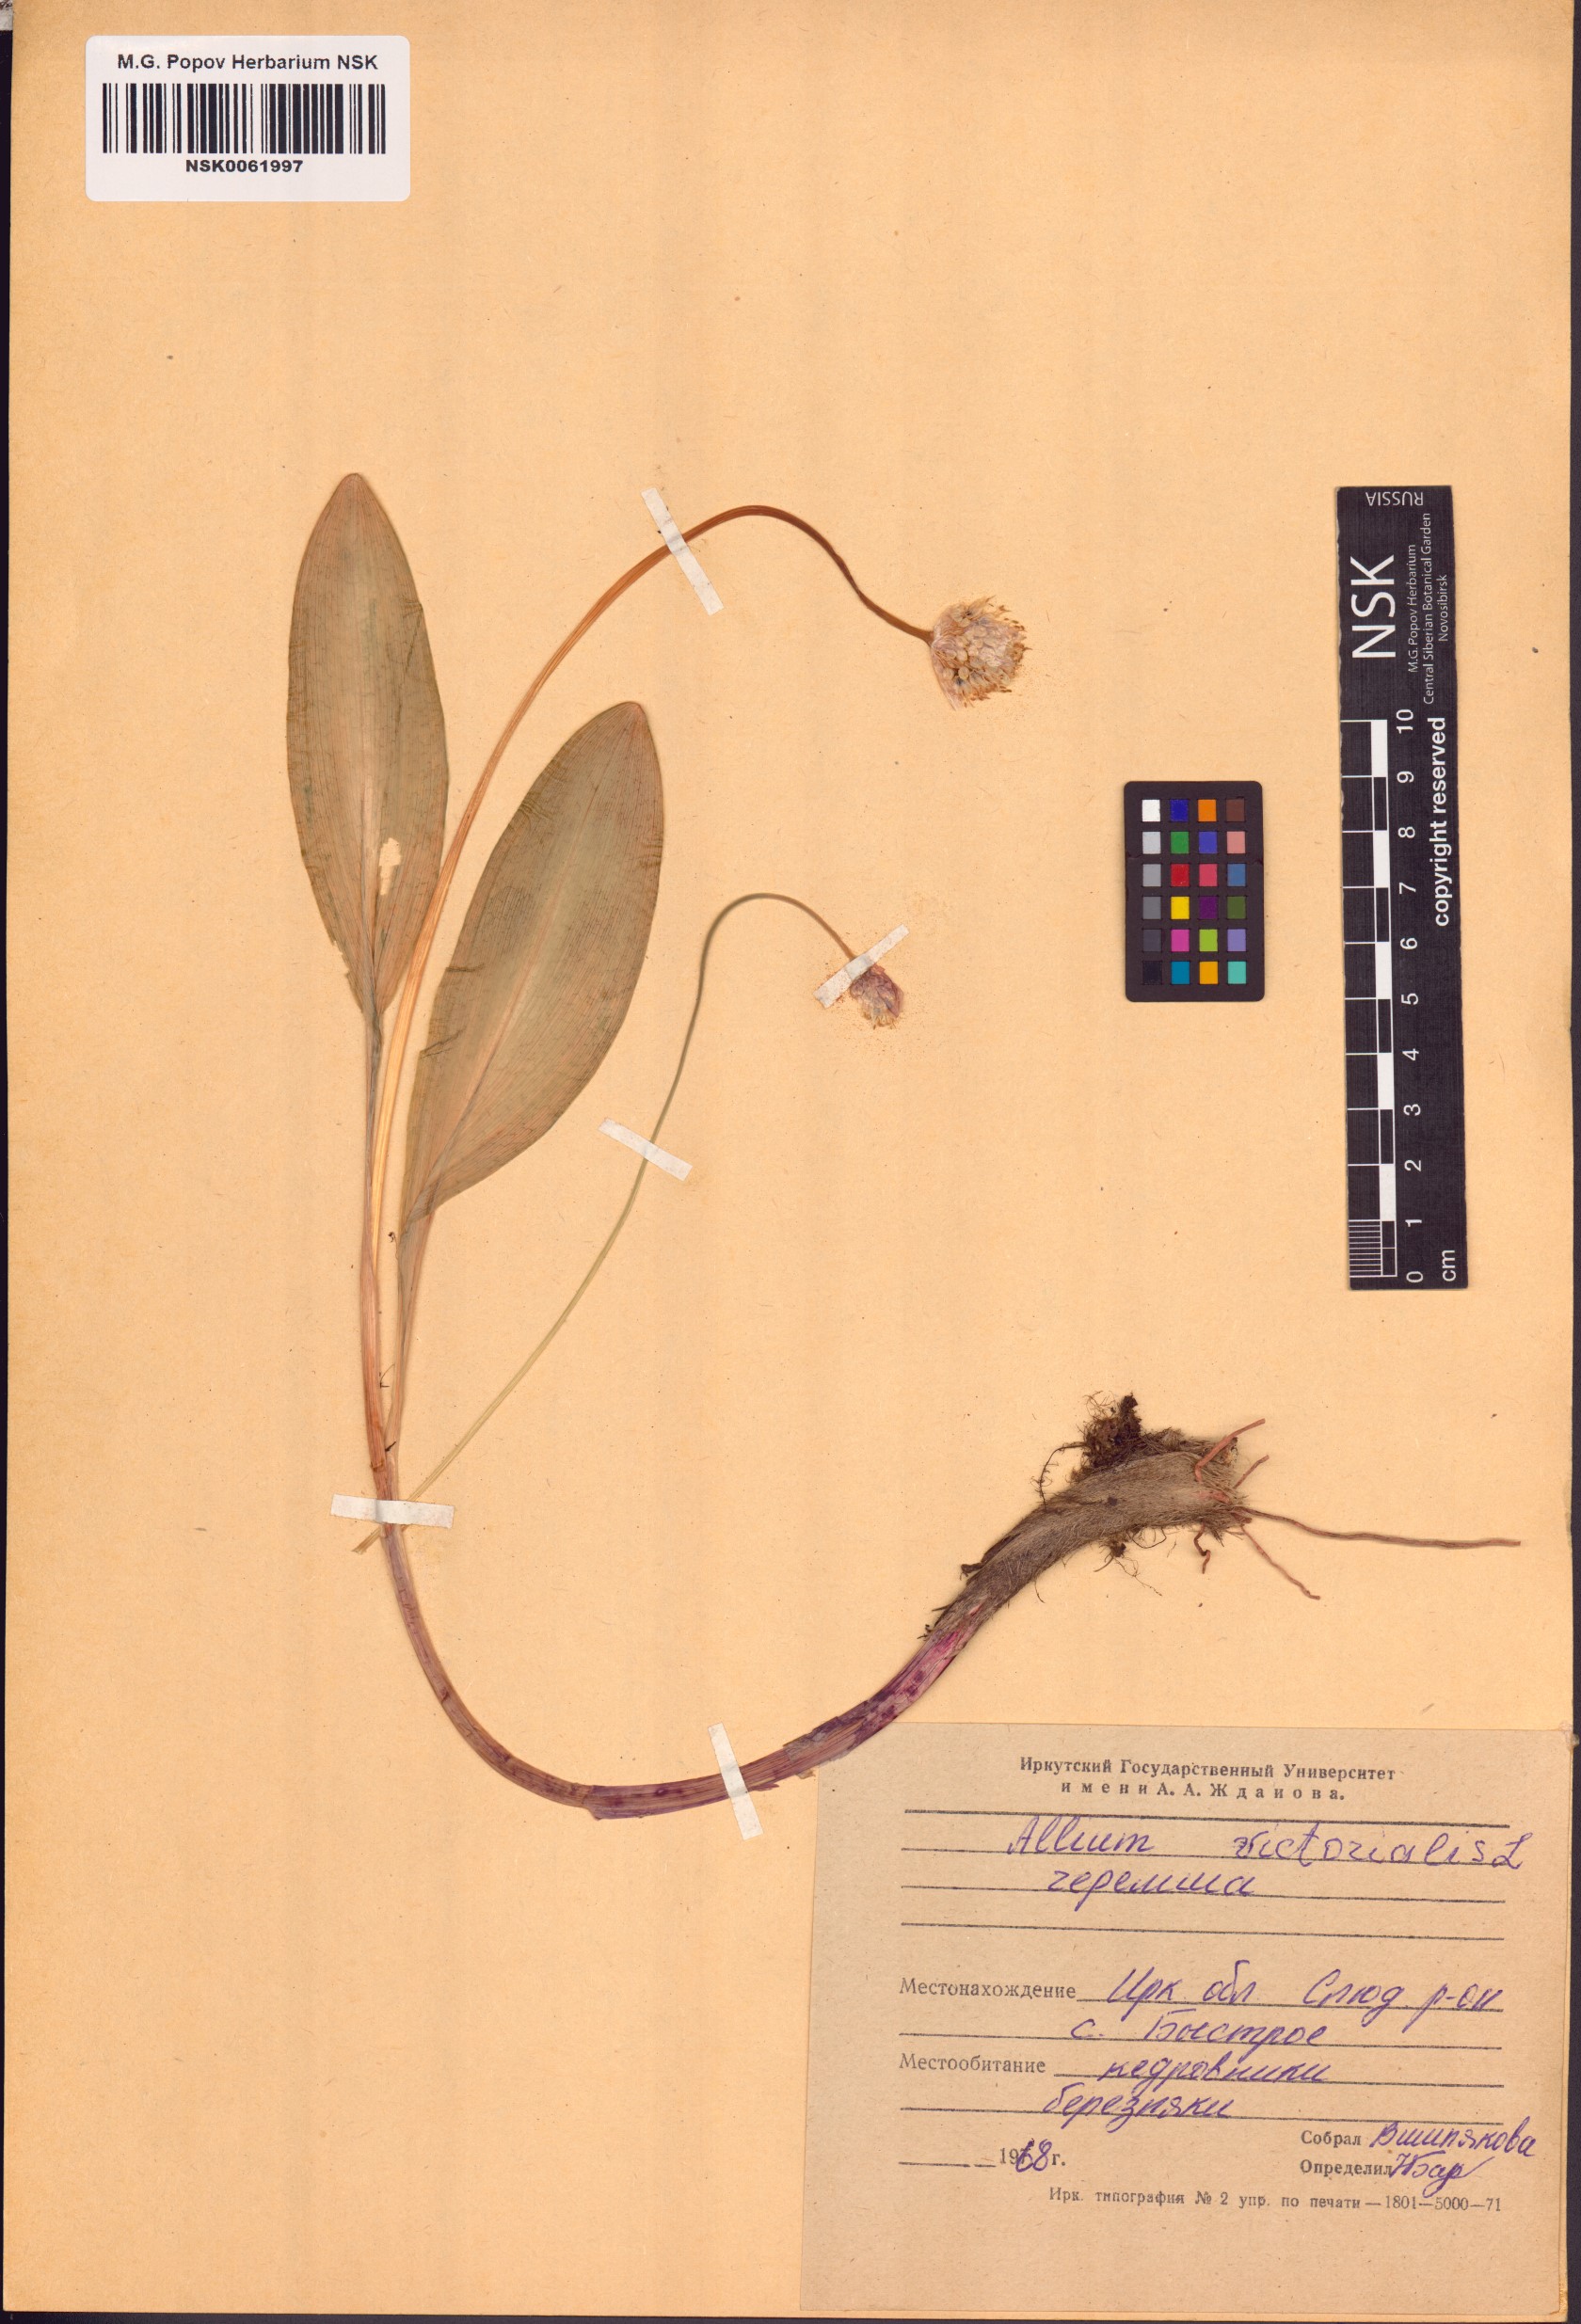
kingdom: Plantae
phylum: Tracheophyta
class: Liliopsida
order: Asparagales
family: Amaryllidaceae
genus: Allium
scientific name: Allium victorialis
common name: Alpine leek
